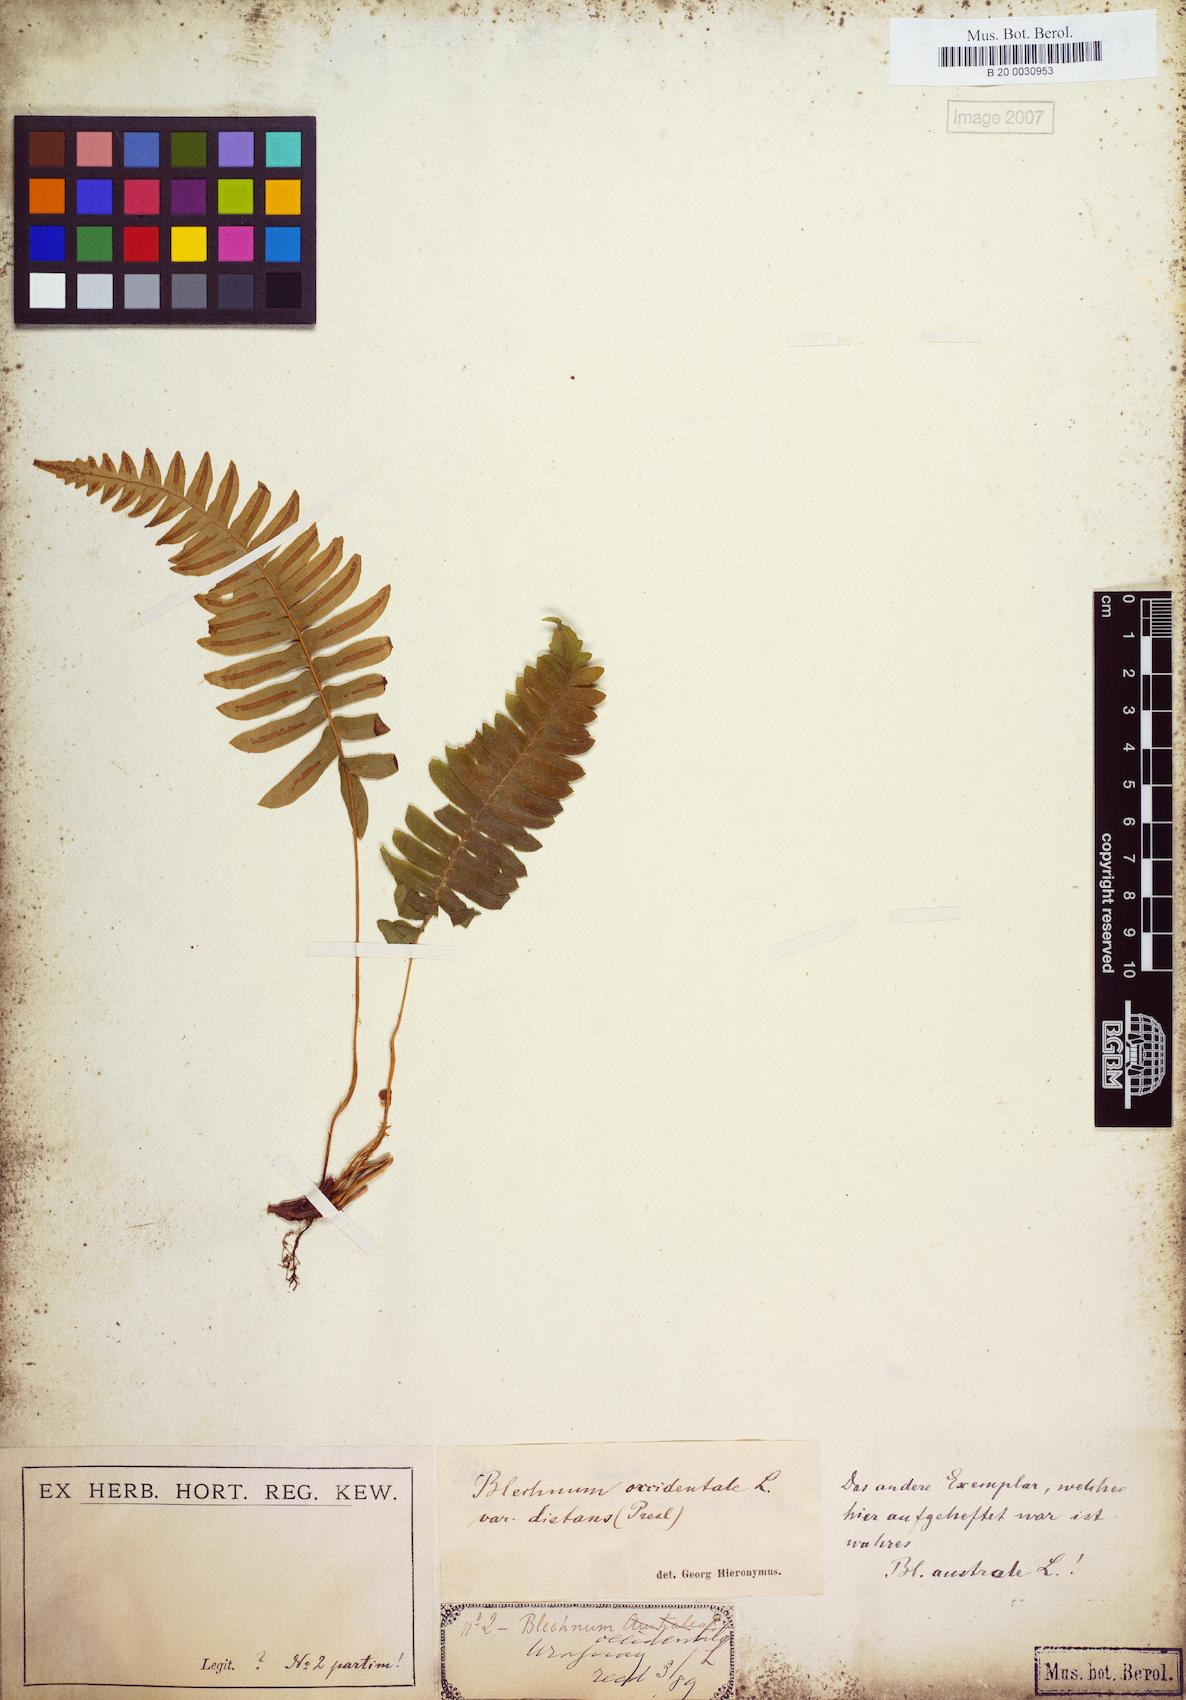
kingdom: Plantae
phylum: Tracheophyta
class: Polypodiopsida
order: Polypodiales
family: Blechnaceae
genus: Blechnum
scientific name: Blechnum laevigatum
